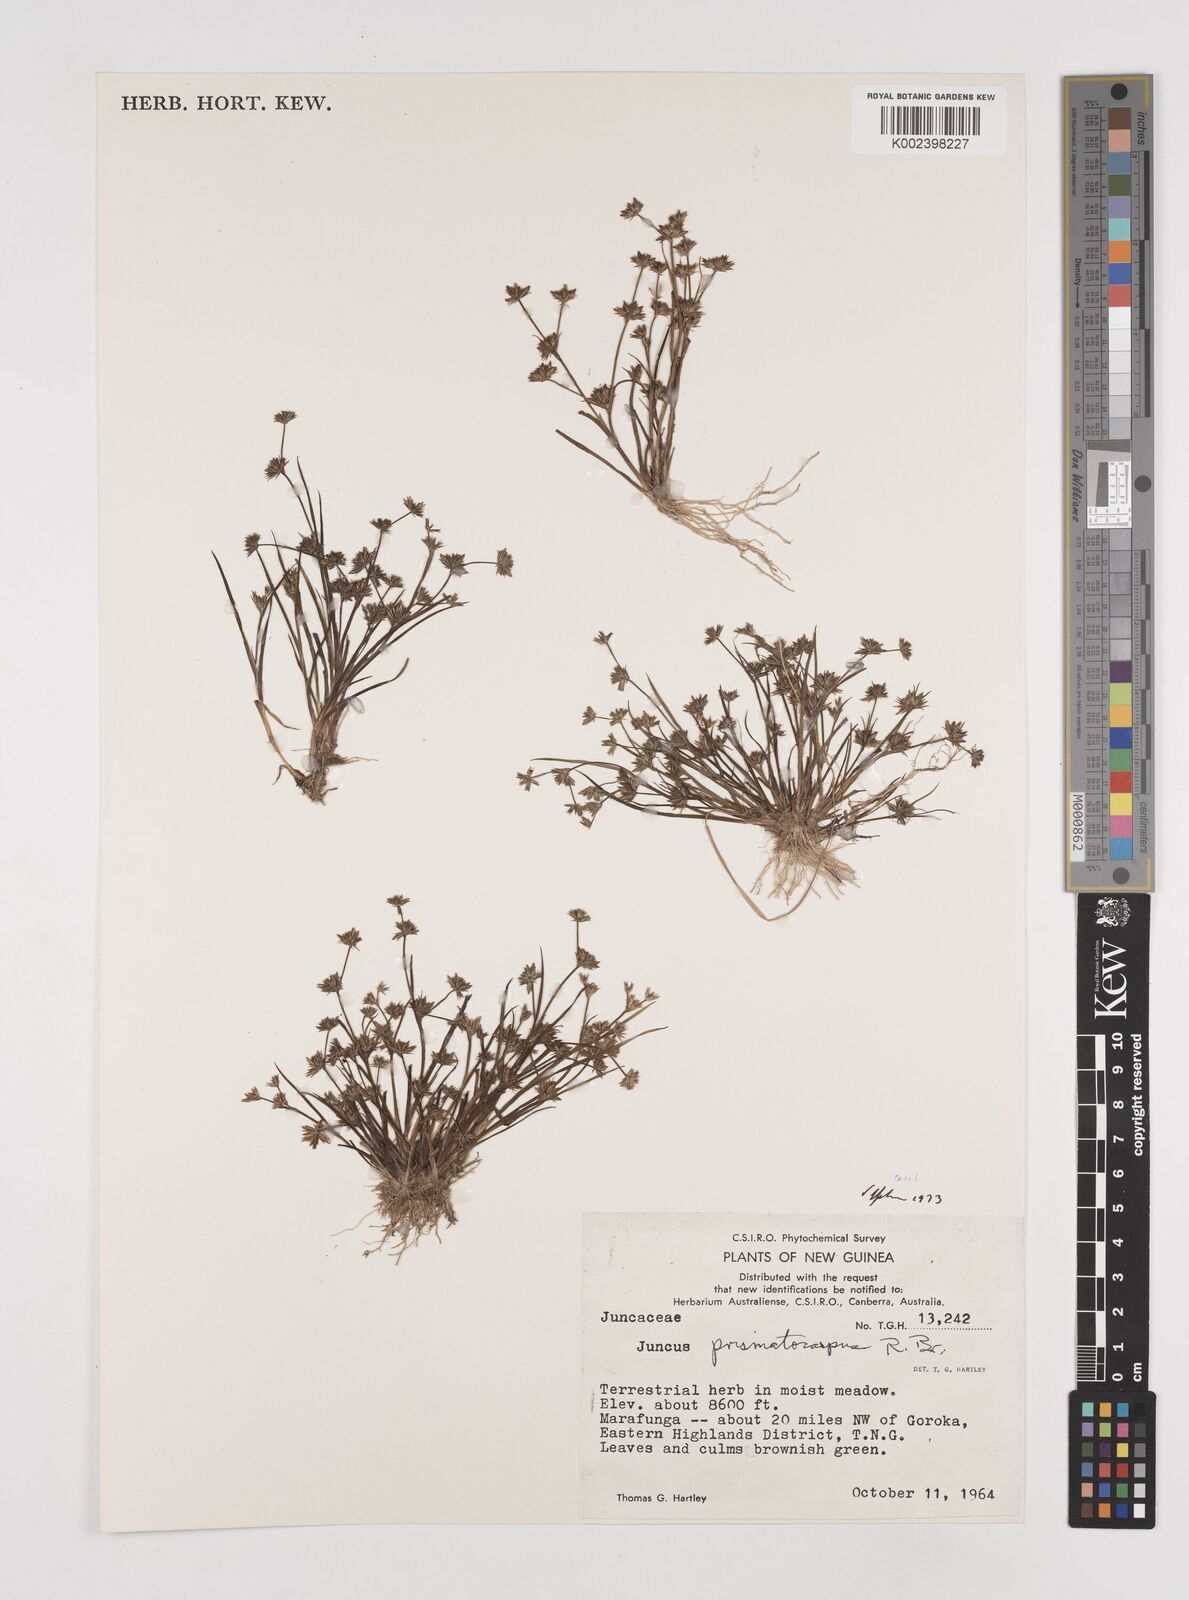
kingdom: Plantae
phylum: Tracheophyta
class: Liliopsida
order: Poales
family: Juncaceae
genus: Juncus
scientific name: Juncus prismatocarpus
